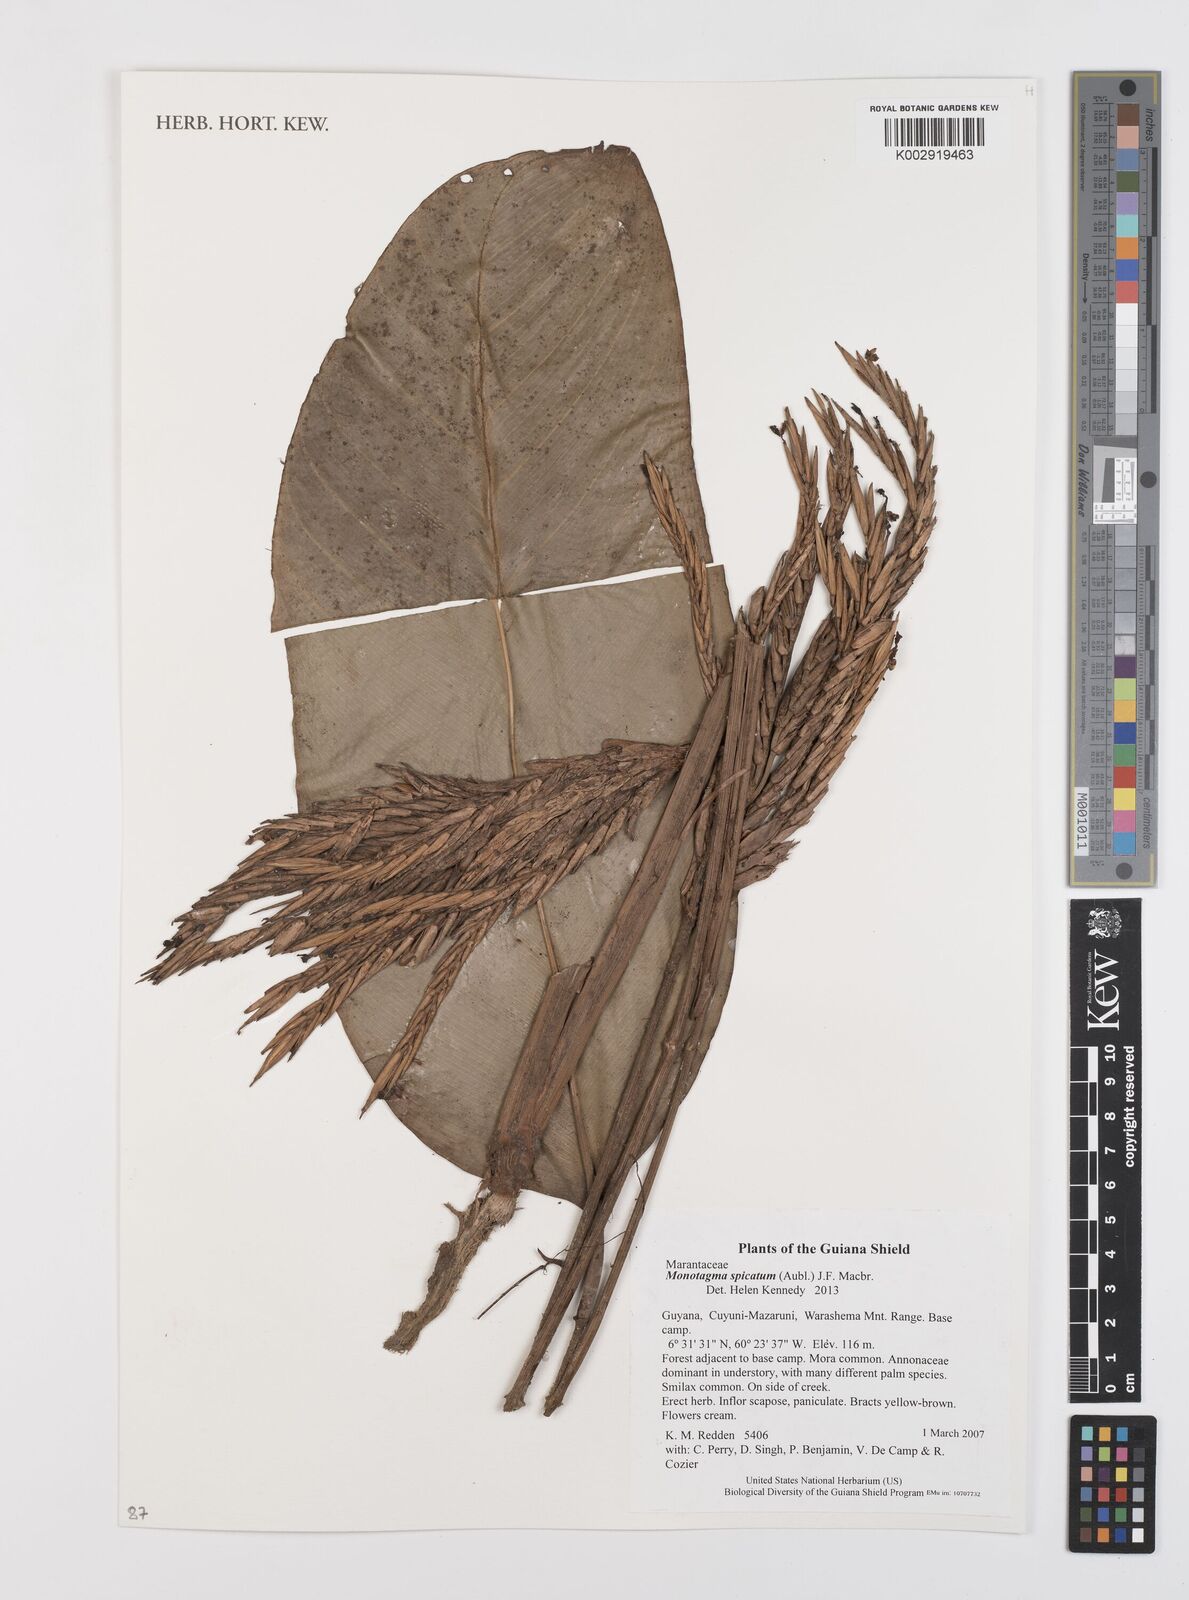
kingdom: Plantae
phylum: Tracheophyta
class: Liliopsida
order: Zingiberales
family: Marantaceae
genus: Monotagma
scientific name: Monotagma spicatum
